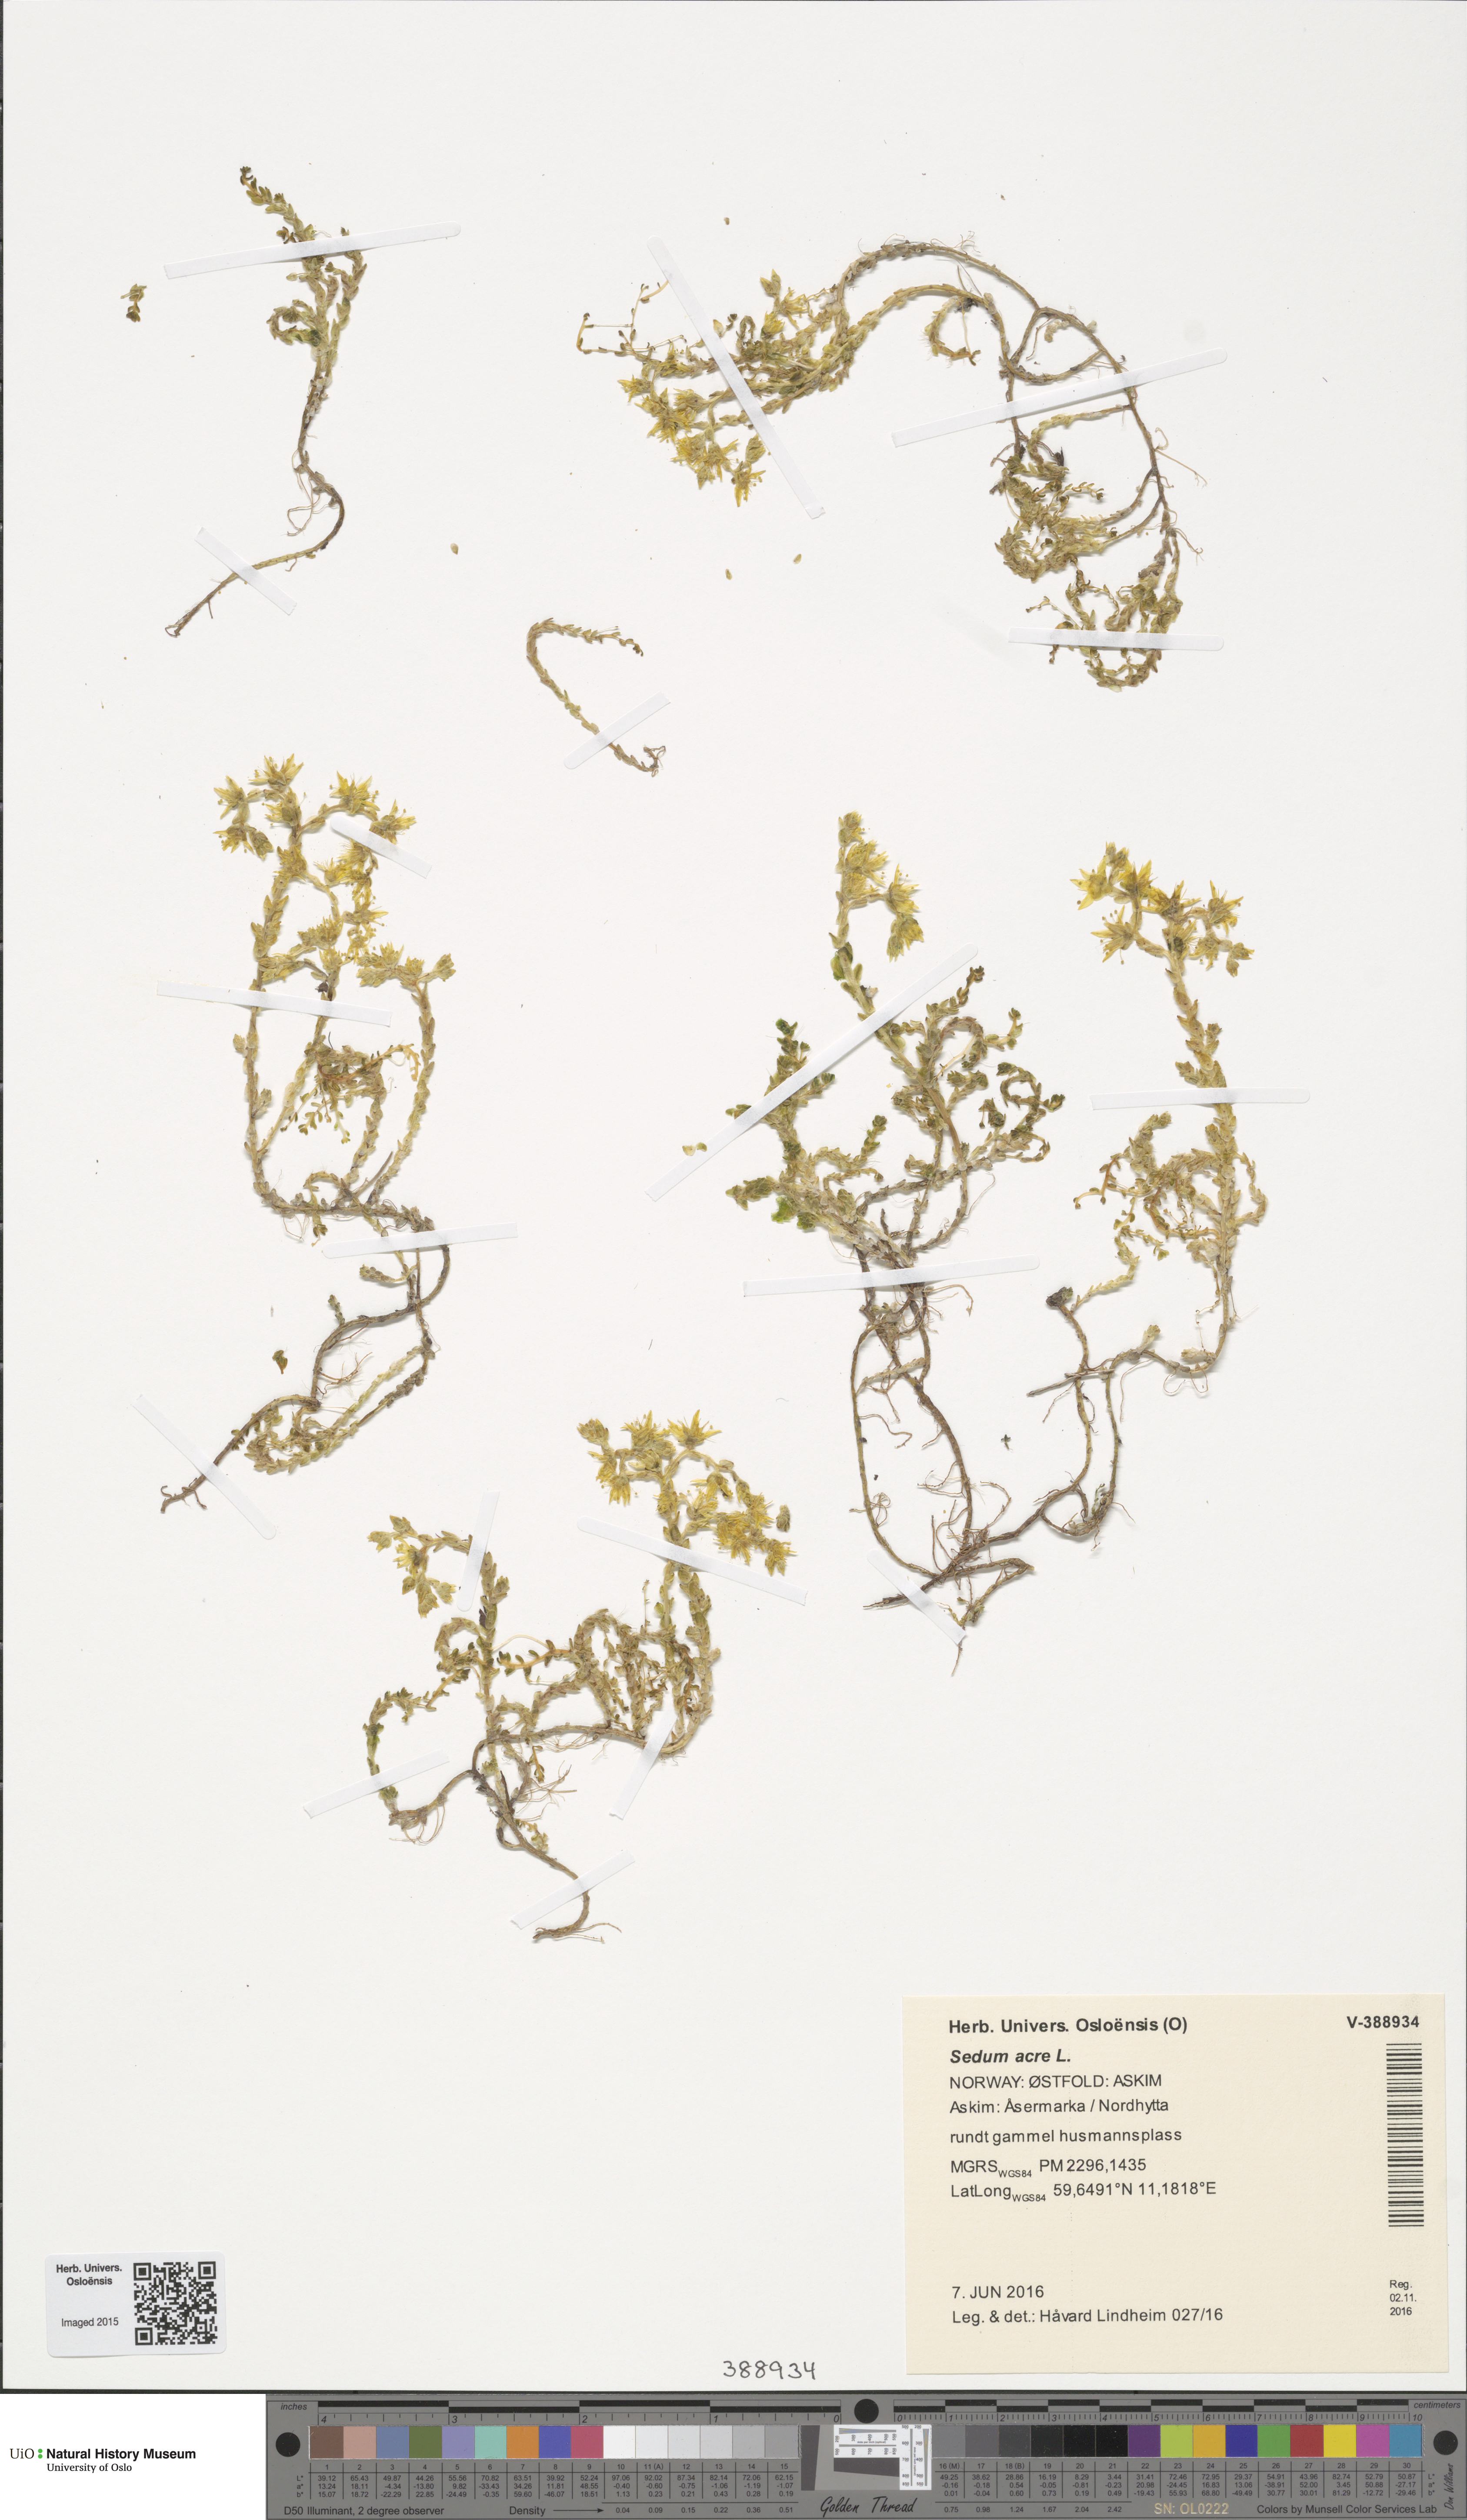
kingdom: Plantae
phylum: Tracheophyta
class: Magnoliopsida
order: Saxifragales
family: Crassulaceae
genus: Sedum
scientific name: Sedum acre
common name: Biting stonecrop
